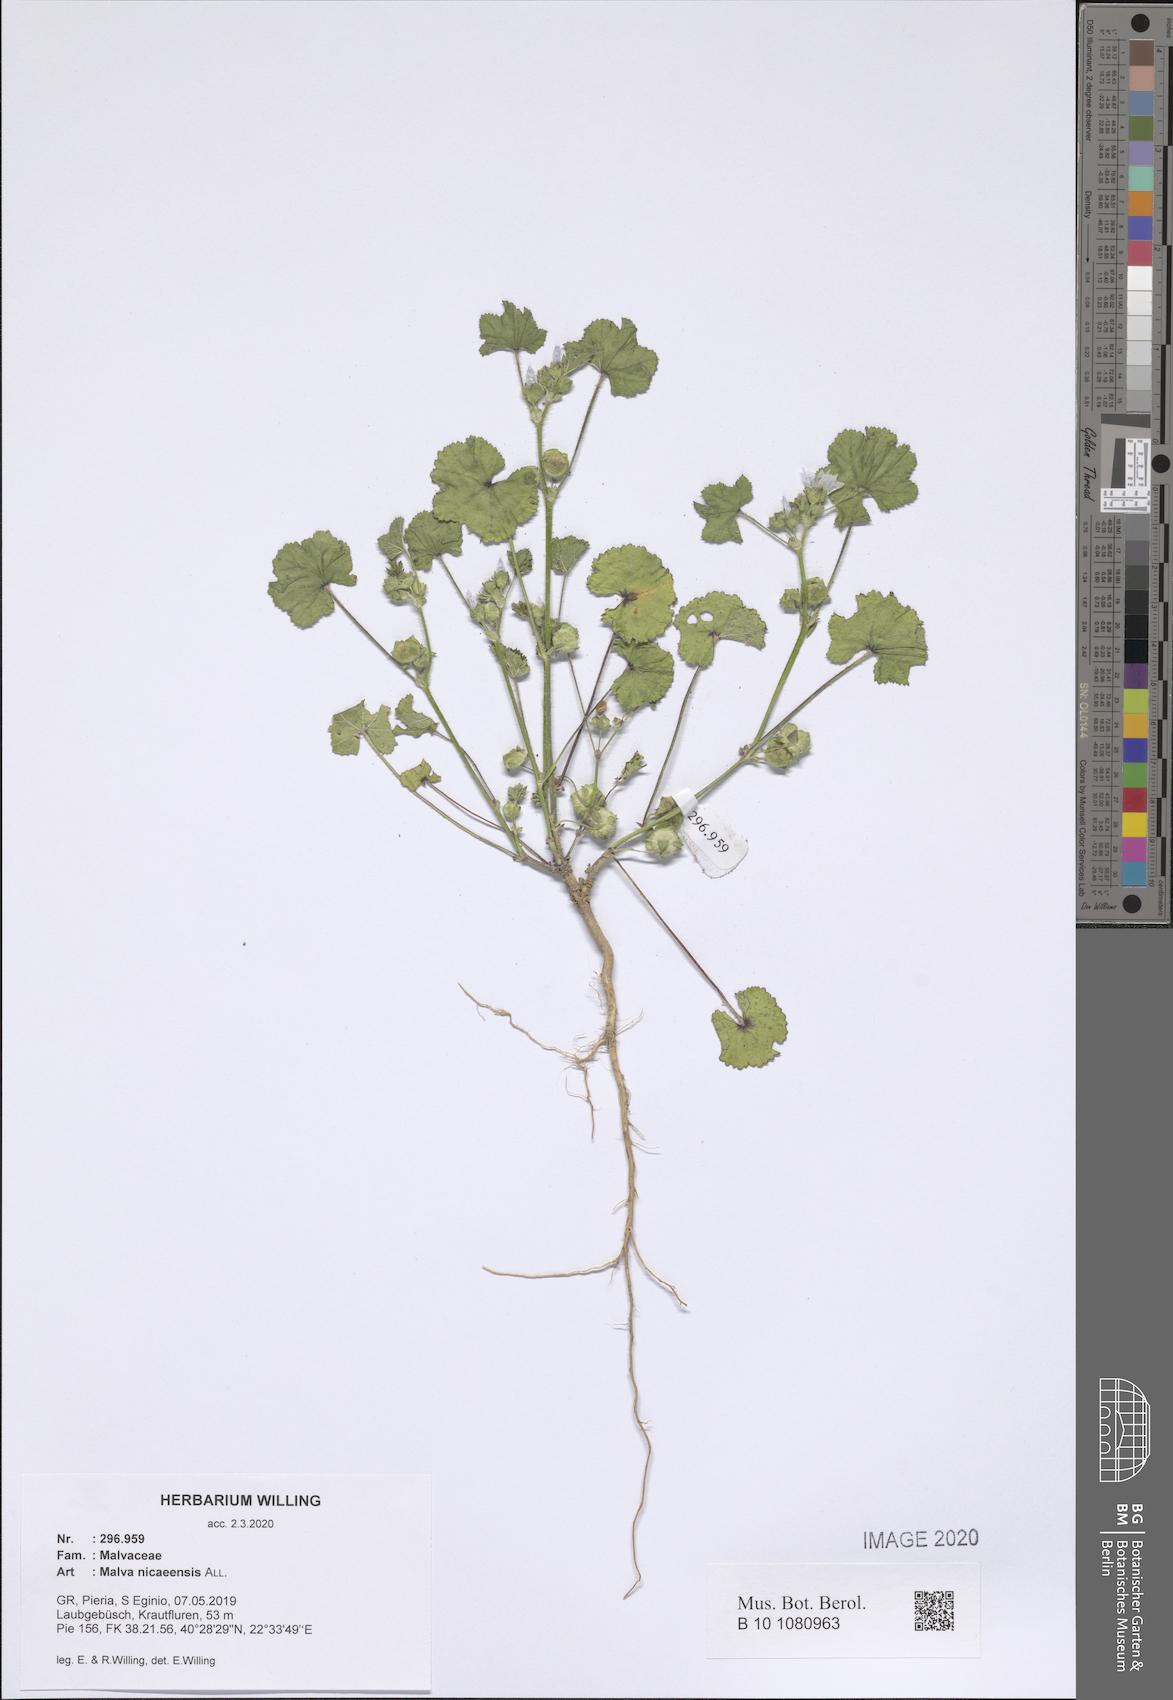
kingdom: Plantae
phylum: Tracheophyta
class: Magnoliopsida
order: Malvales
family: Malvaceae
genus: Malva
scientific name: Malva nicaeensis
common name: French mallow
